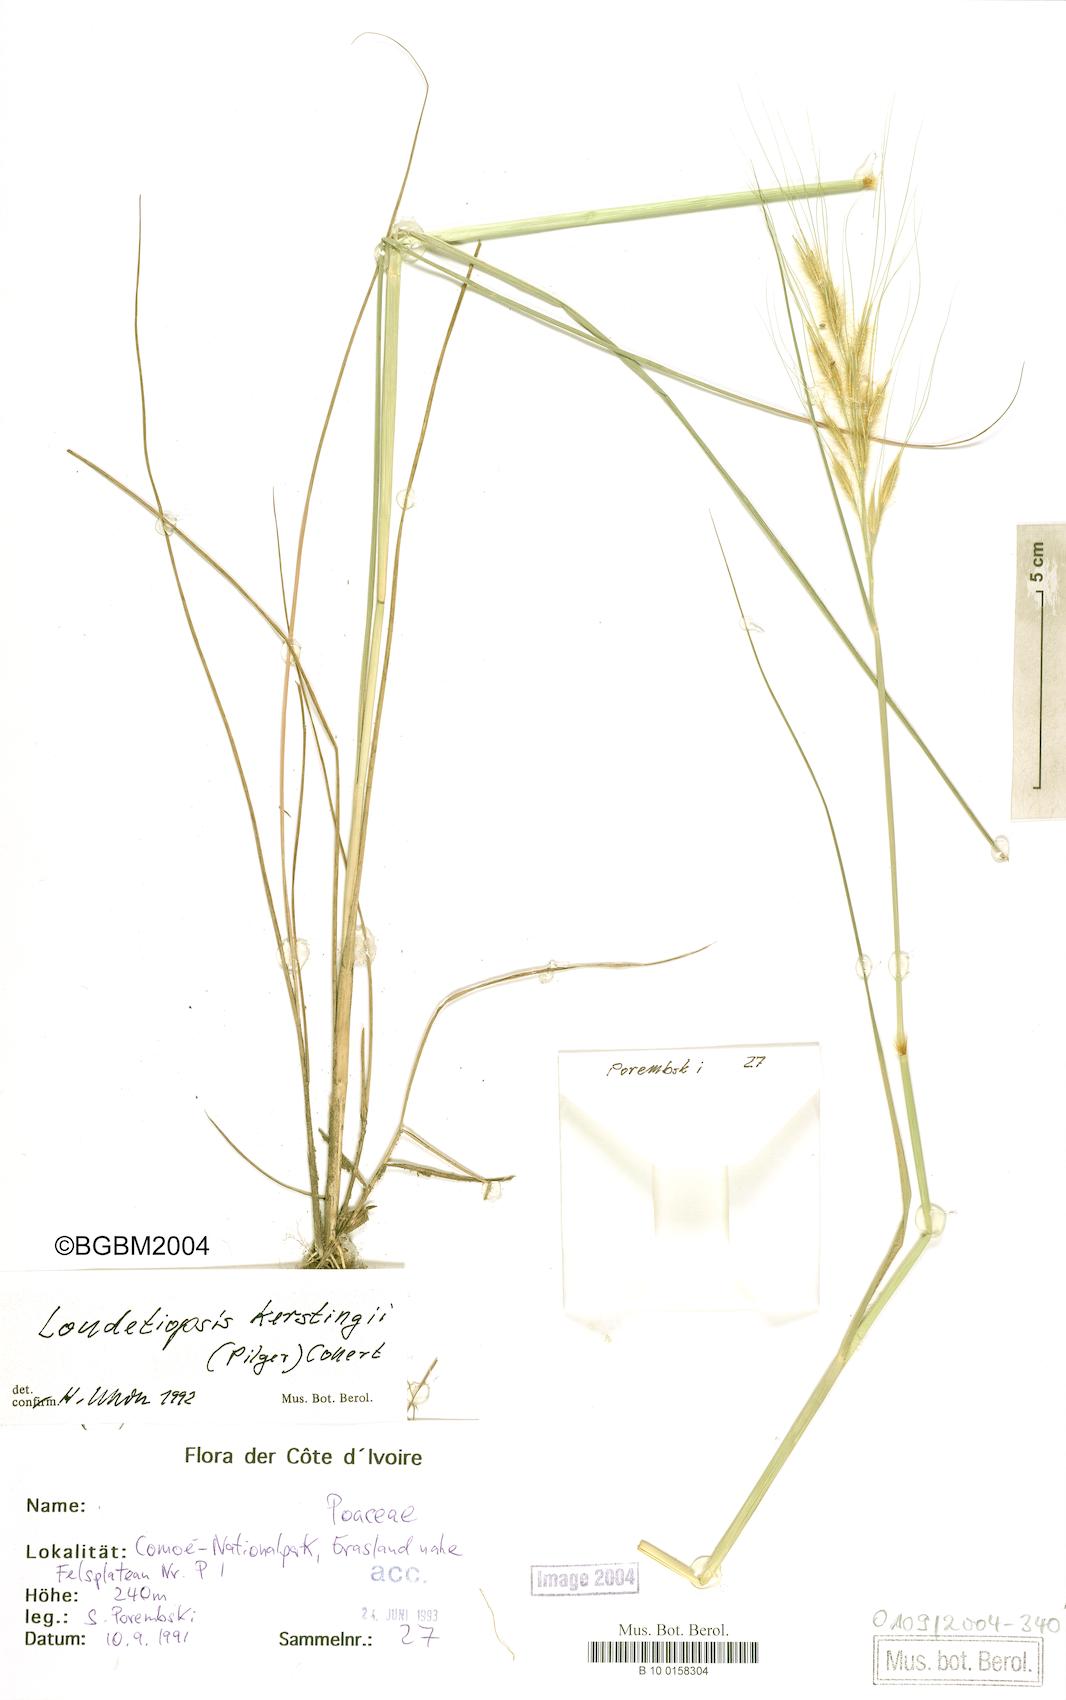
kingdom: Plantae
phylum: Tracheophyta
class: Liliopsida
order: Poales
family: Poaceae
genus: Loudetiopsis
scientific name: Loudetiopsis kerstingii
